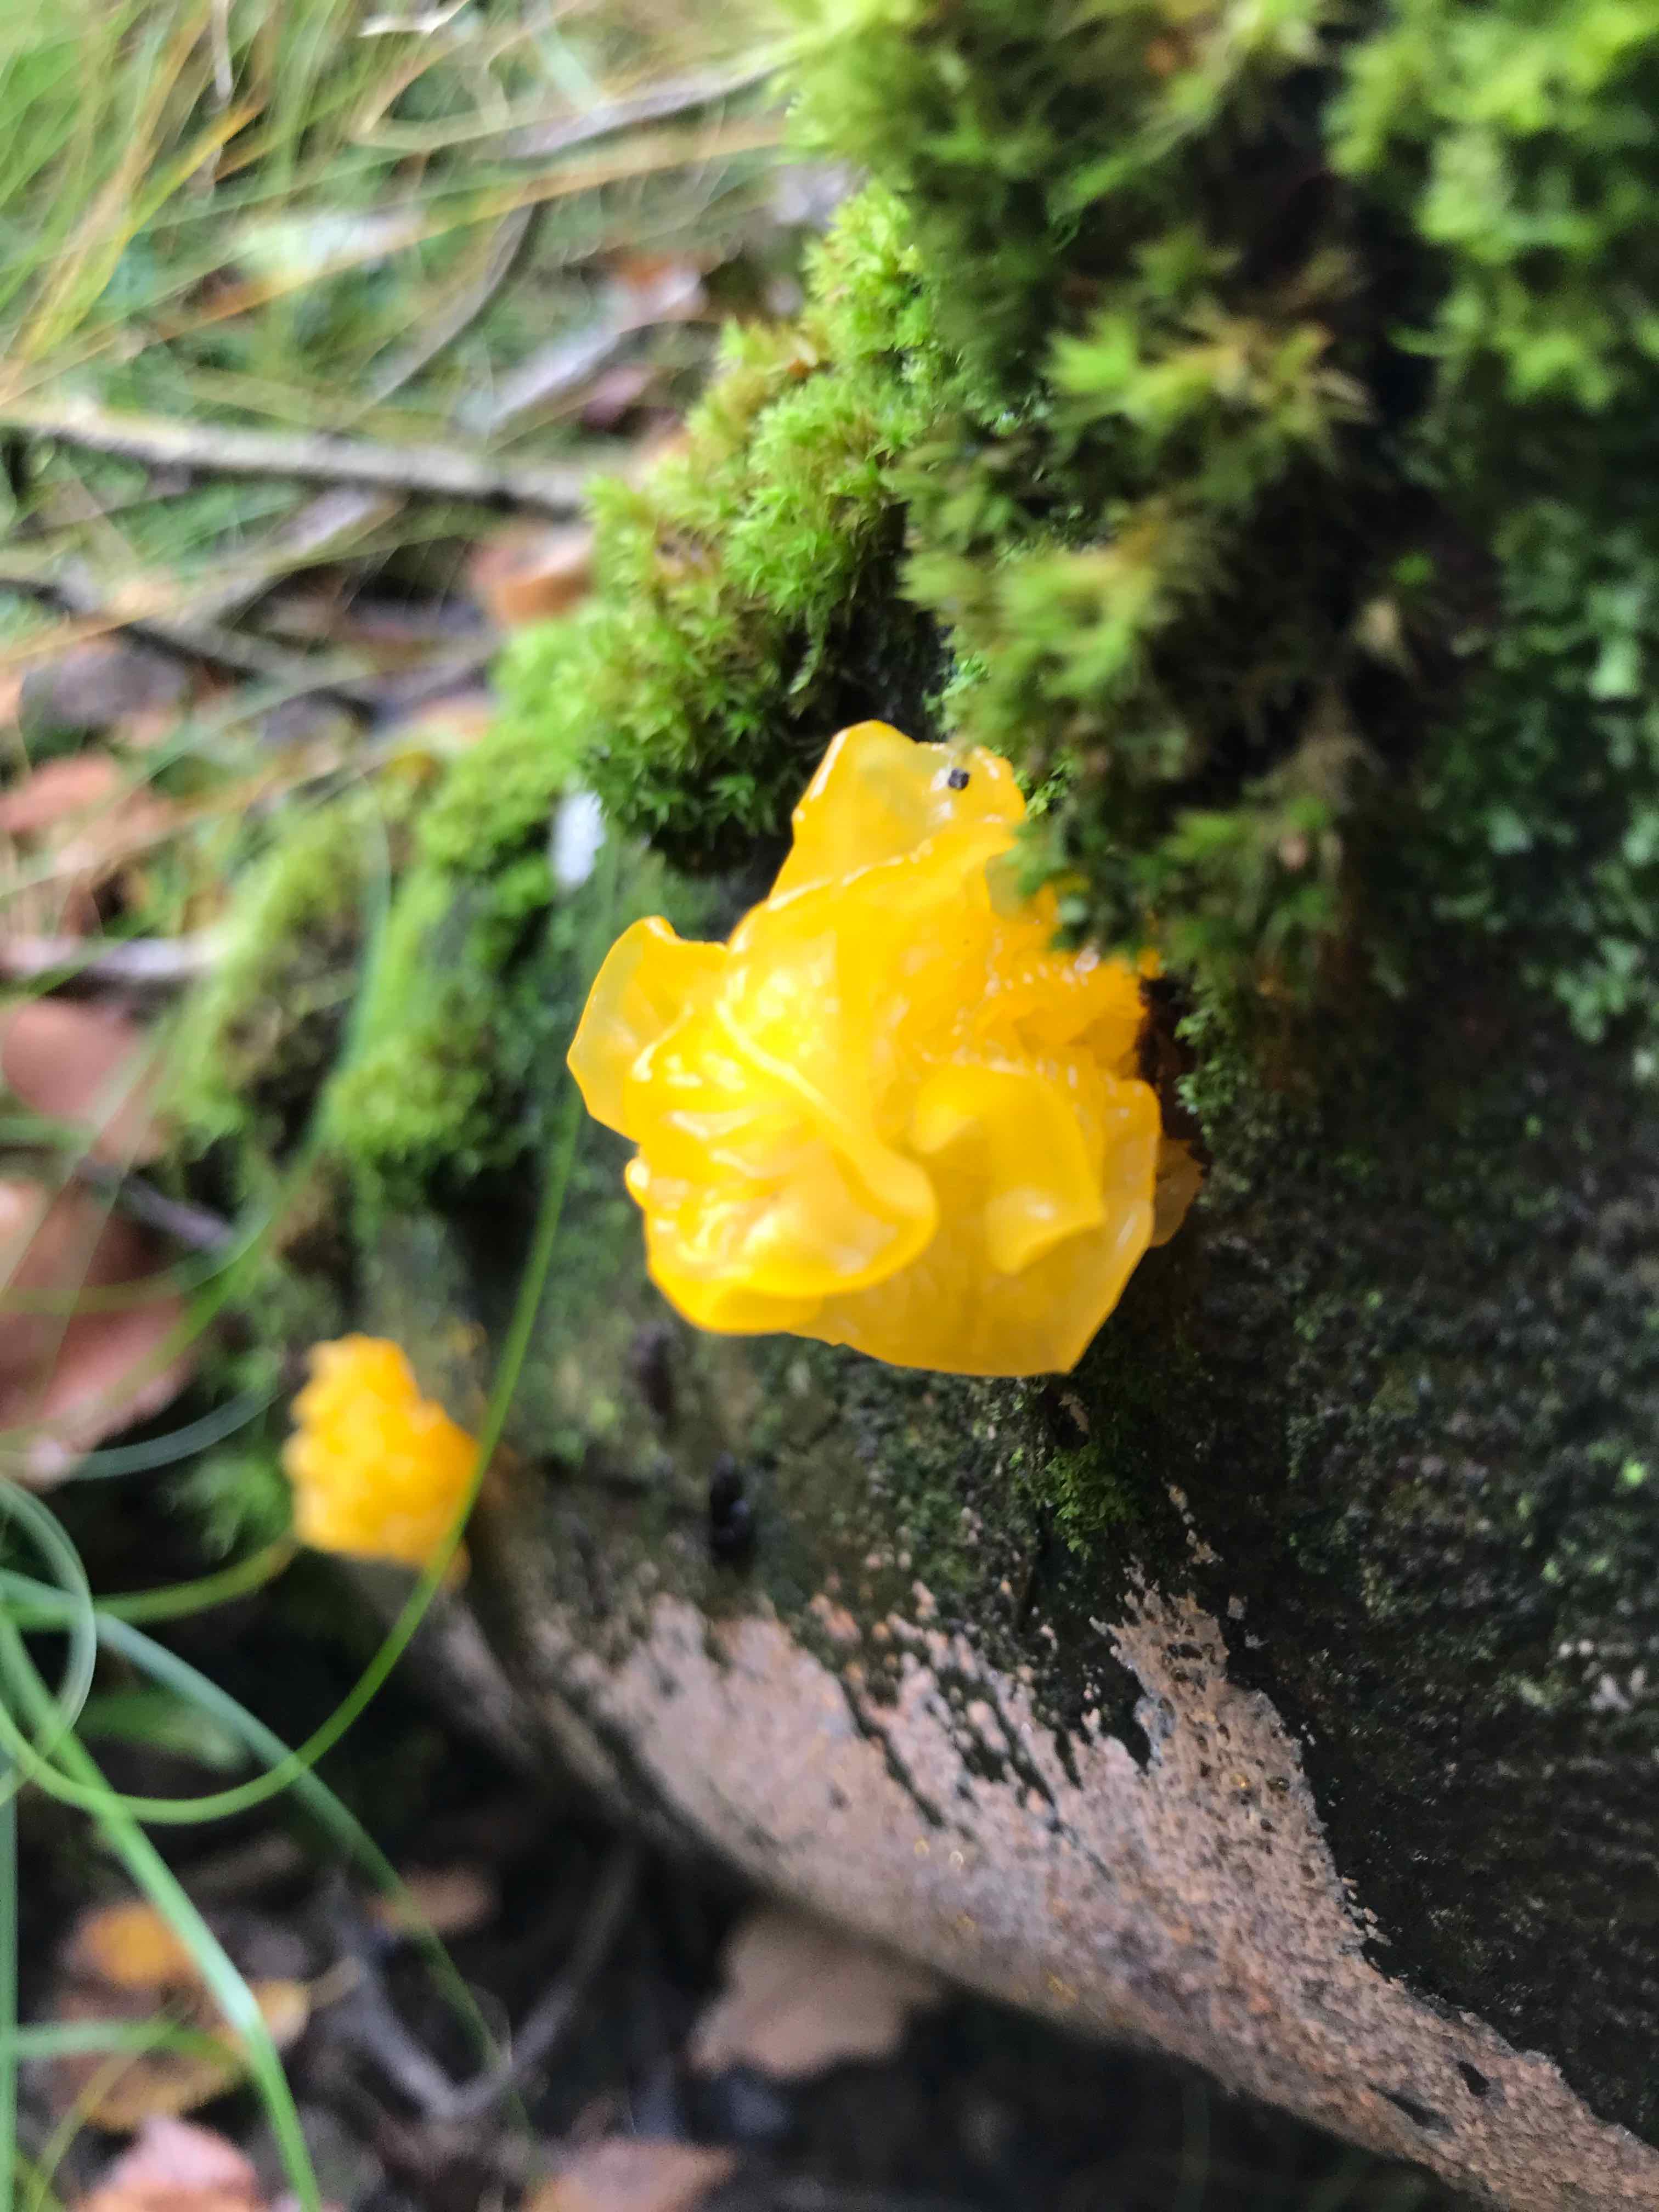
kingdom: Fungi
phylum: Basidiomycota
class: Tremellomycetes
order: Tremellales
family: Tremellaceae
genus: Tremella
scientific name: Tremella mesenterica
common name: gul bævresvamp
